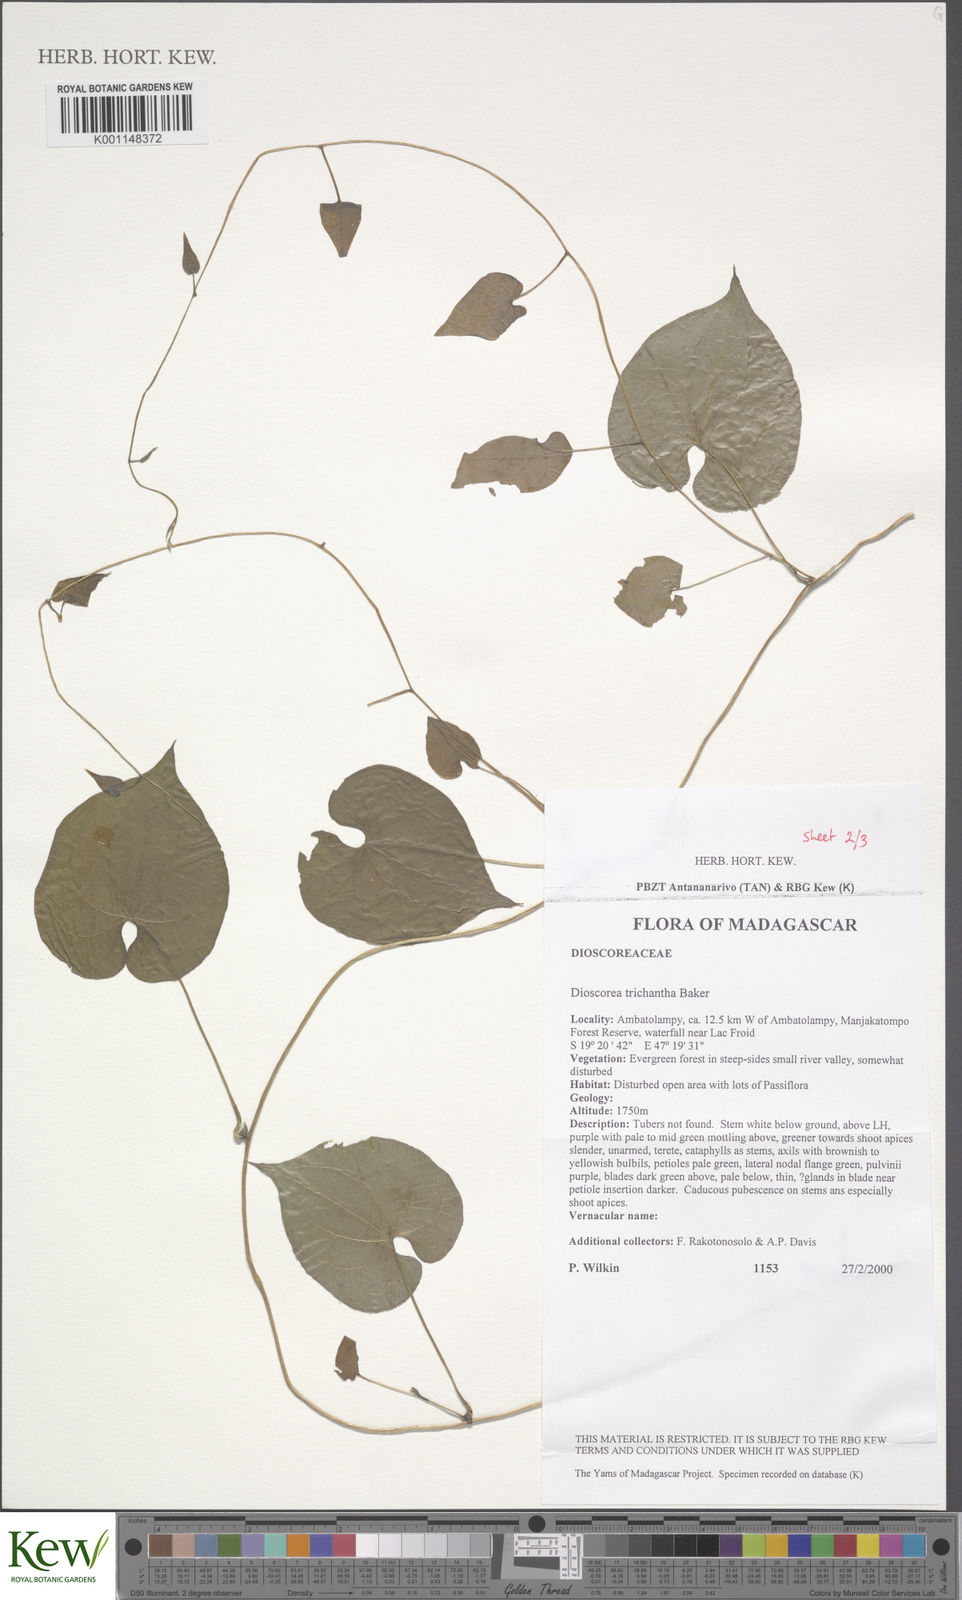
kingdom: Plantae
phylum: Tracheophyta
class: Liliopsida
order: Dioscoreales
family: Dioscoreaceae
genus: Dioscorea
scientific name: Dioscorea trichantha
